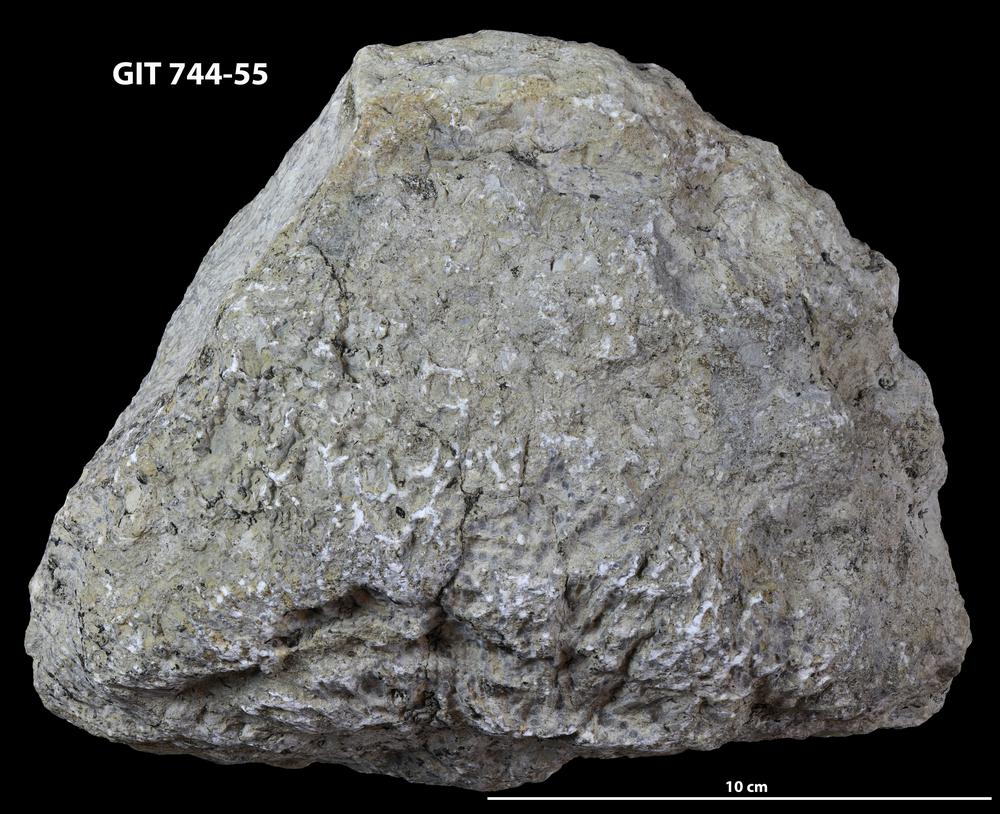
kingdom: Animalia
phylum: Cnidaria
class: Anthozoa
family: Halysitidae
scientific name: Halysitidae
